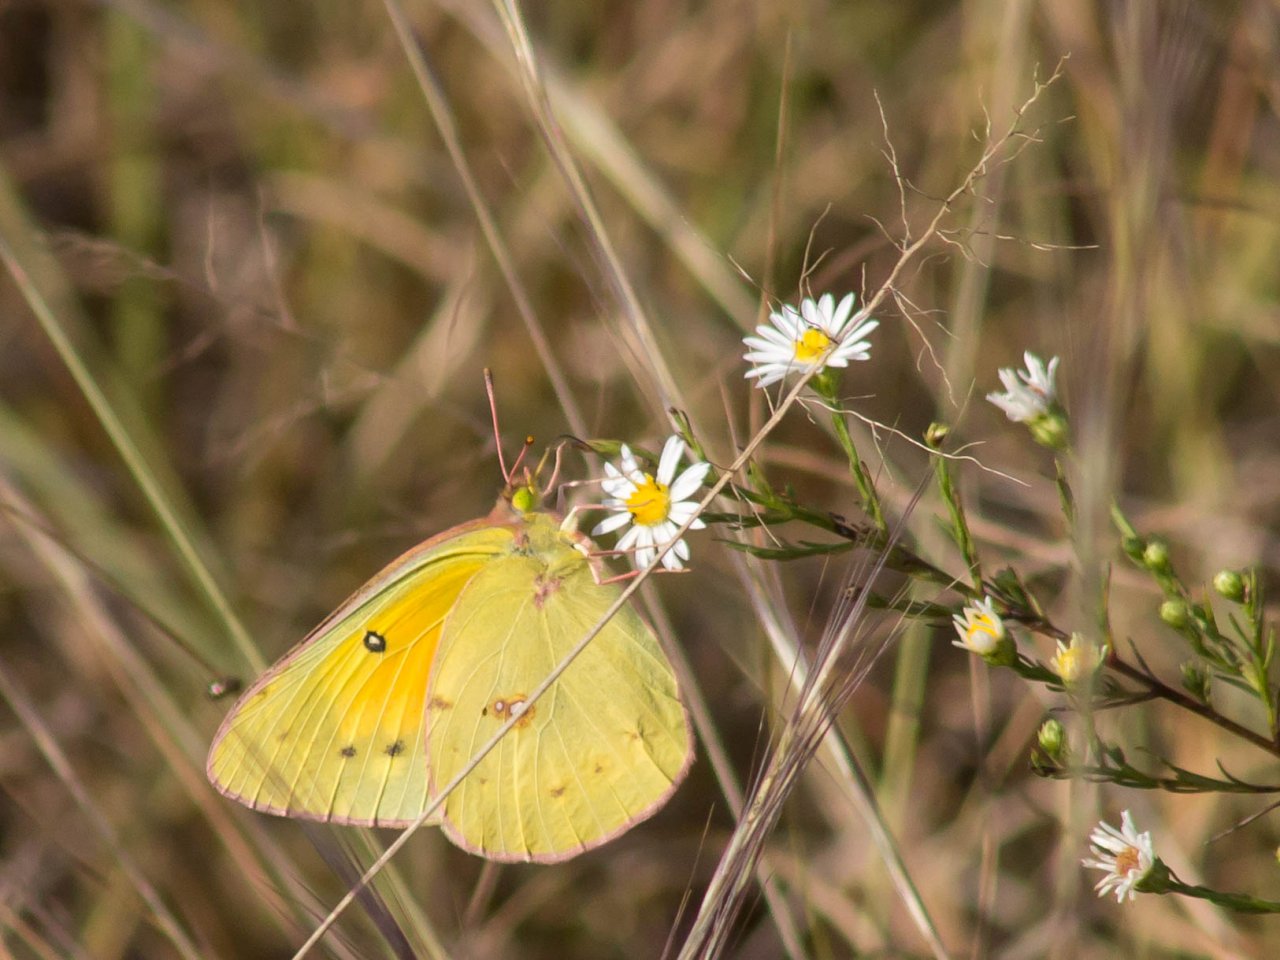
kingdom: Animalia
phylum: Arthropoda
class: Insecta
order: Lepidoptera
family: Pieridae
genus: Colias
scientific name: Colias eurytheme
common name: Orange Sulphur
